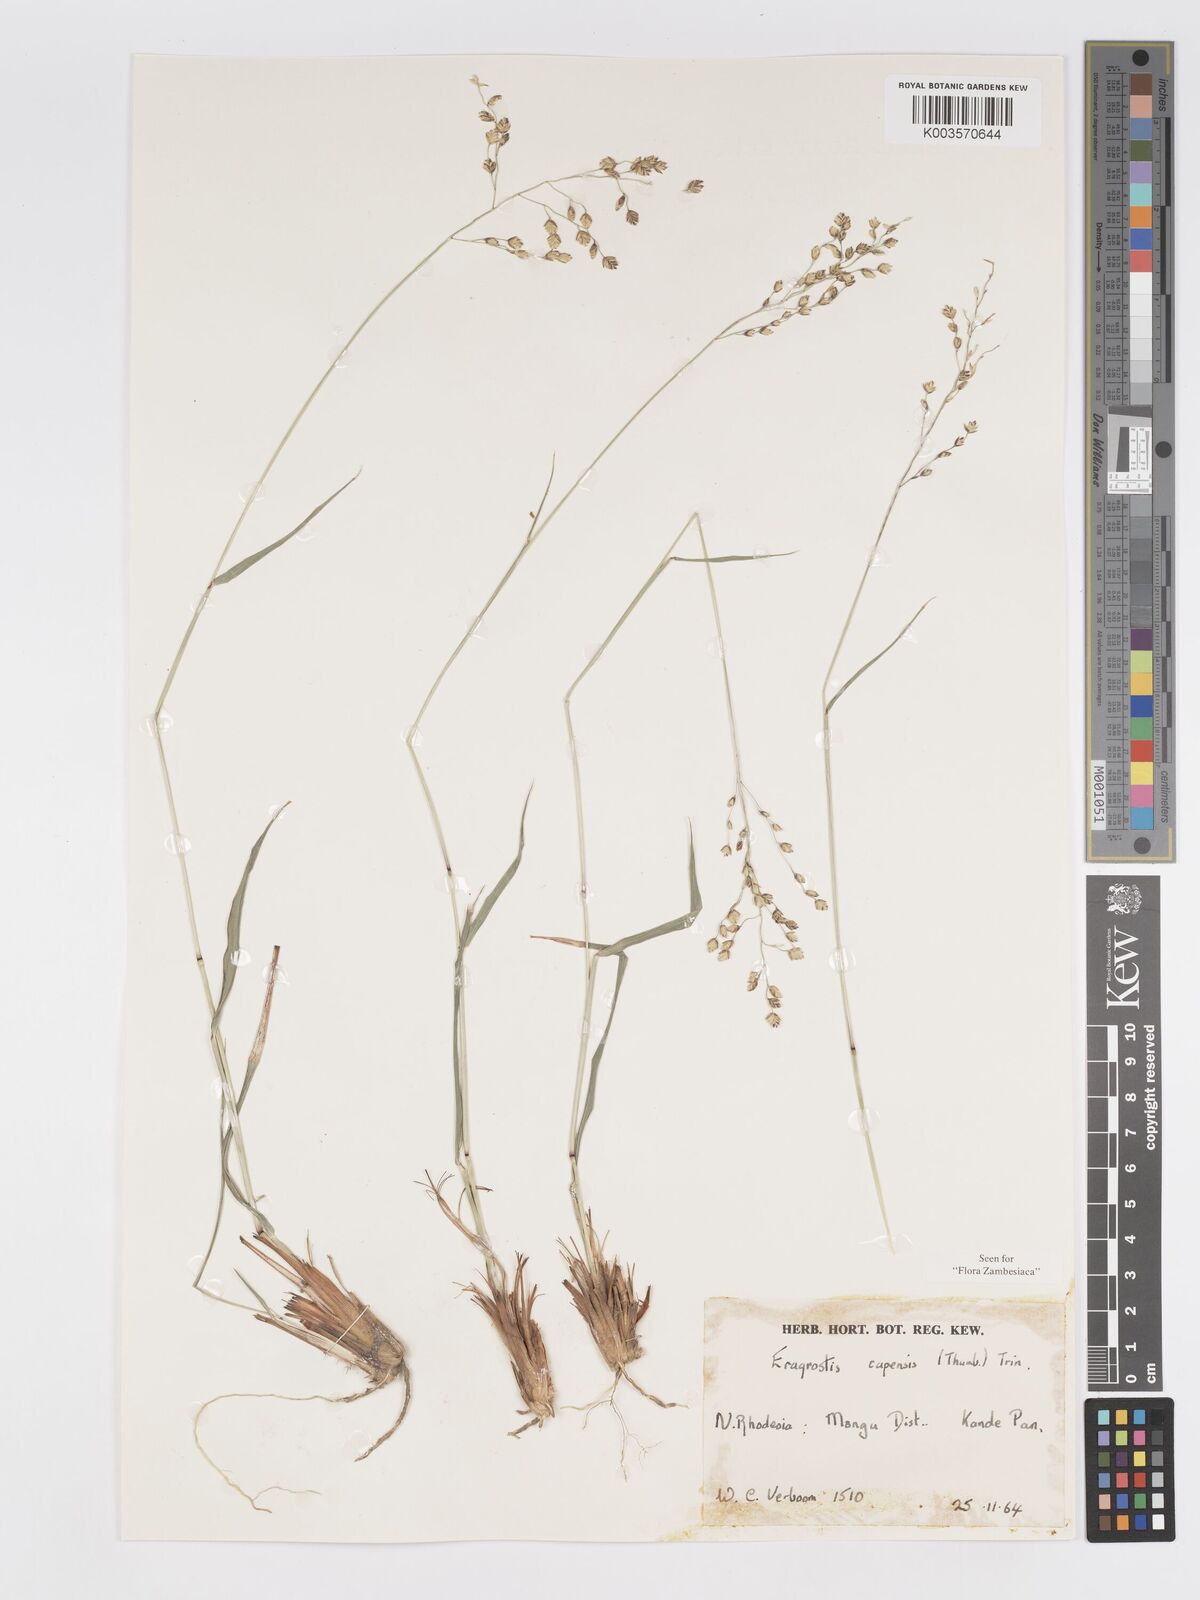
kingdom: Plantae
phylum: Tracheophyta
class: Liliopsida
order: Poales
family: Poaceae
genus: Eragrostis
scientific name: Eragrostis capensis
